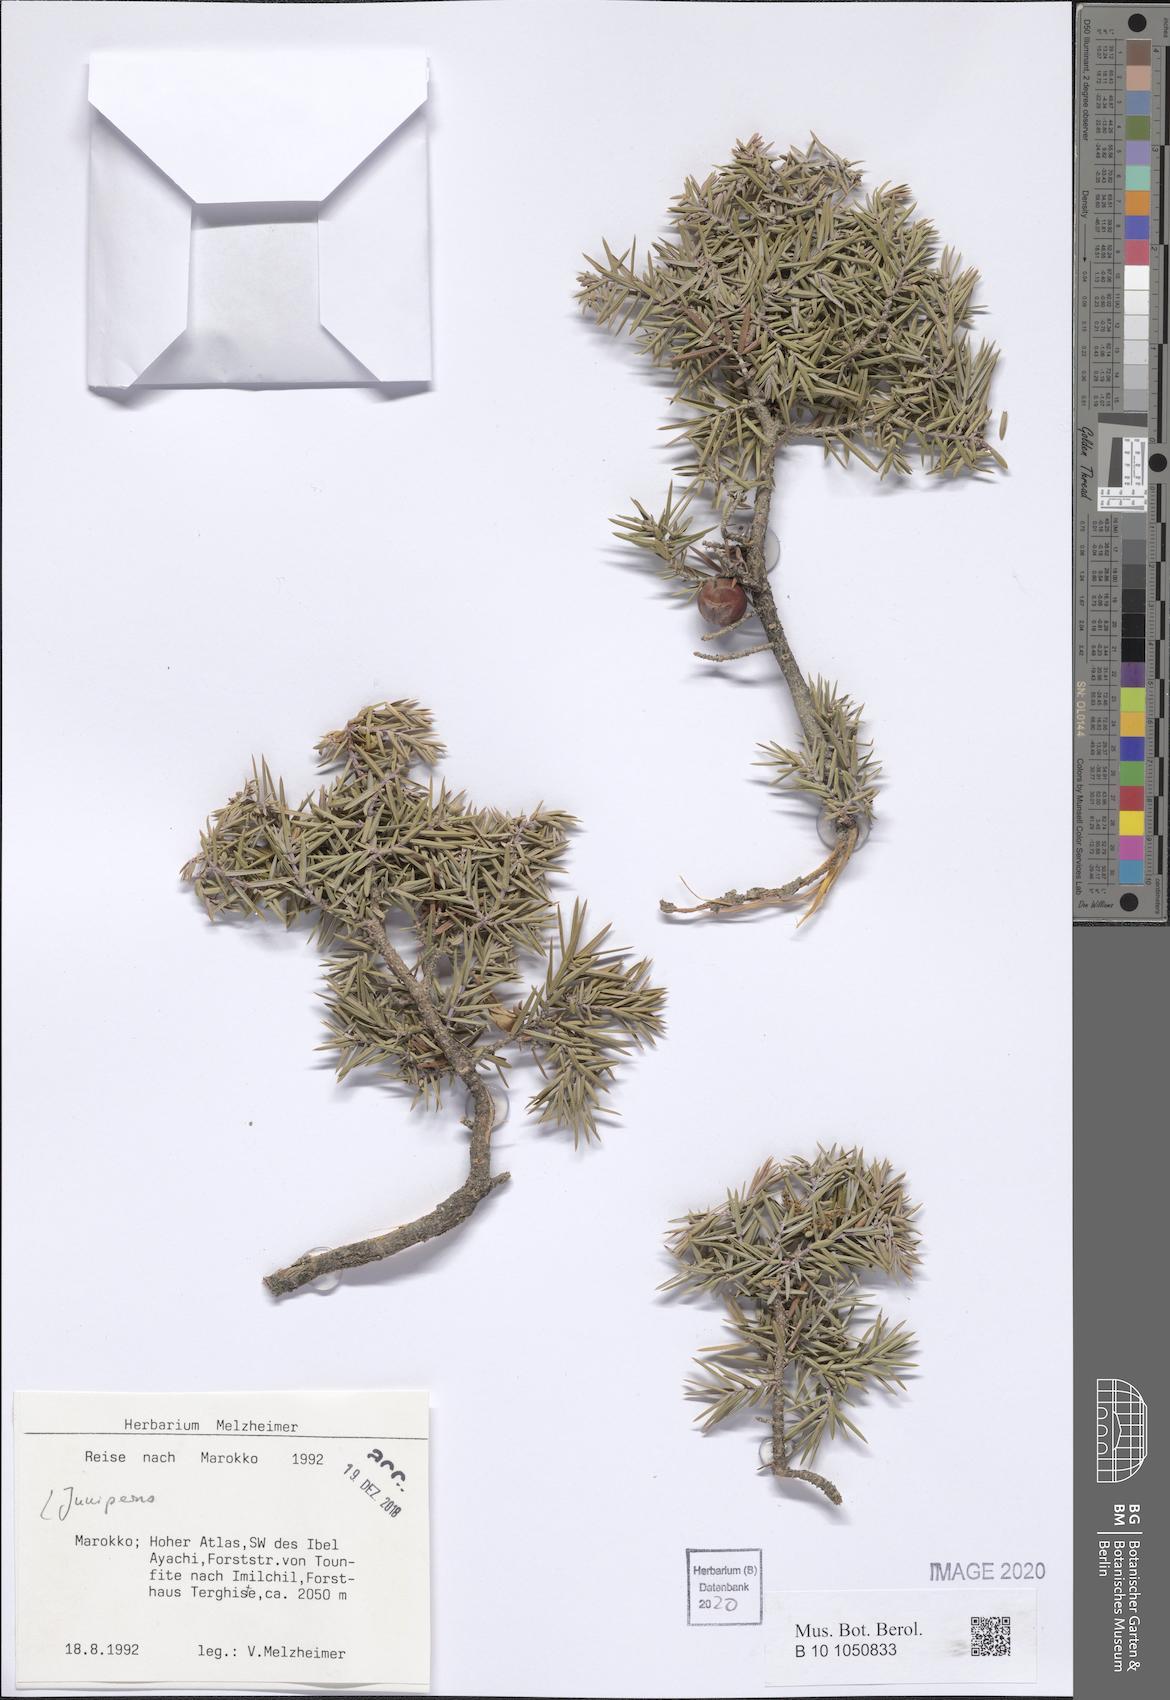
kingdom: Plantae
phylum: Tracheophyta
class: Pinopsida
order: Pinales
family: Cupressaceae
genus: Juniperus
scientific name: Juniperus
